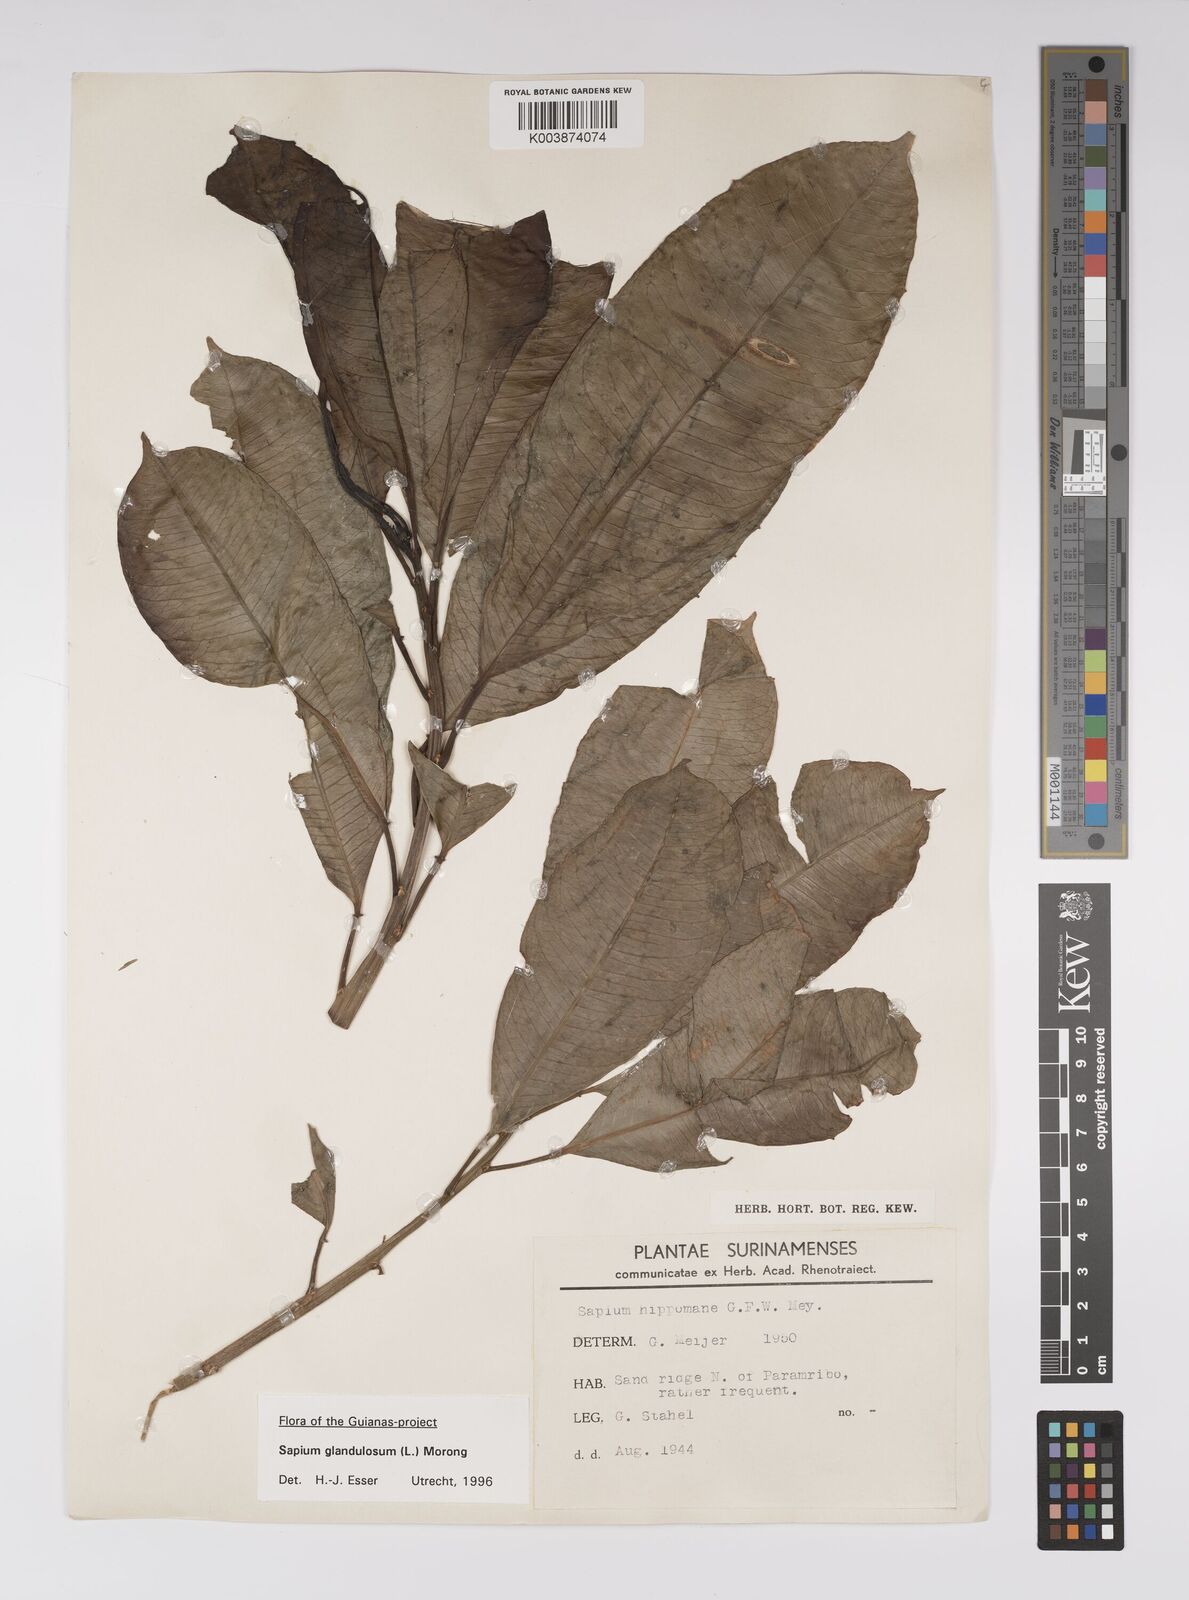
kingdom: Plantae
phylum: Tracheophyta
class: Magnoliopsida
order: Malpighiales
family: Euphorbiaceae
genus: Sapium
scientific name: Sapium glandulosum
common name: Milktree
